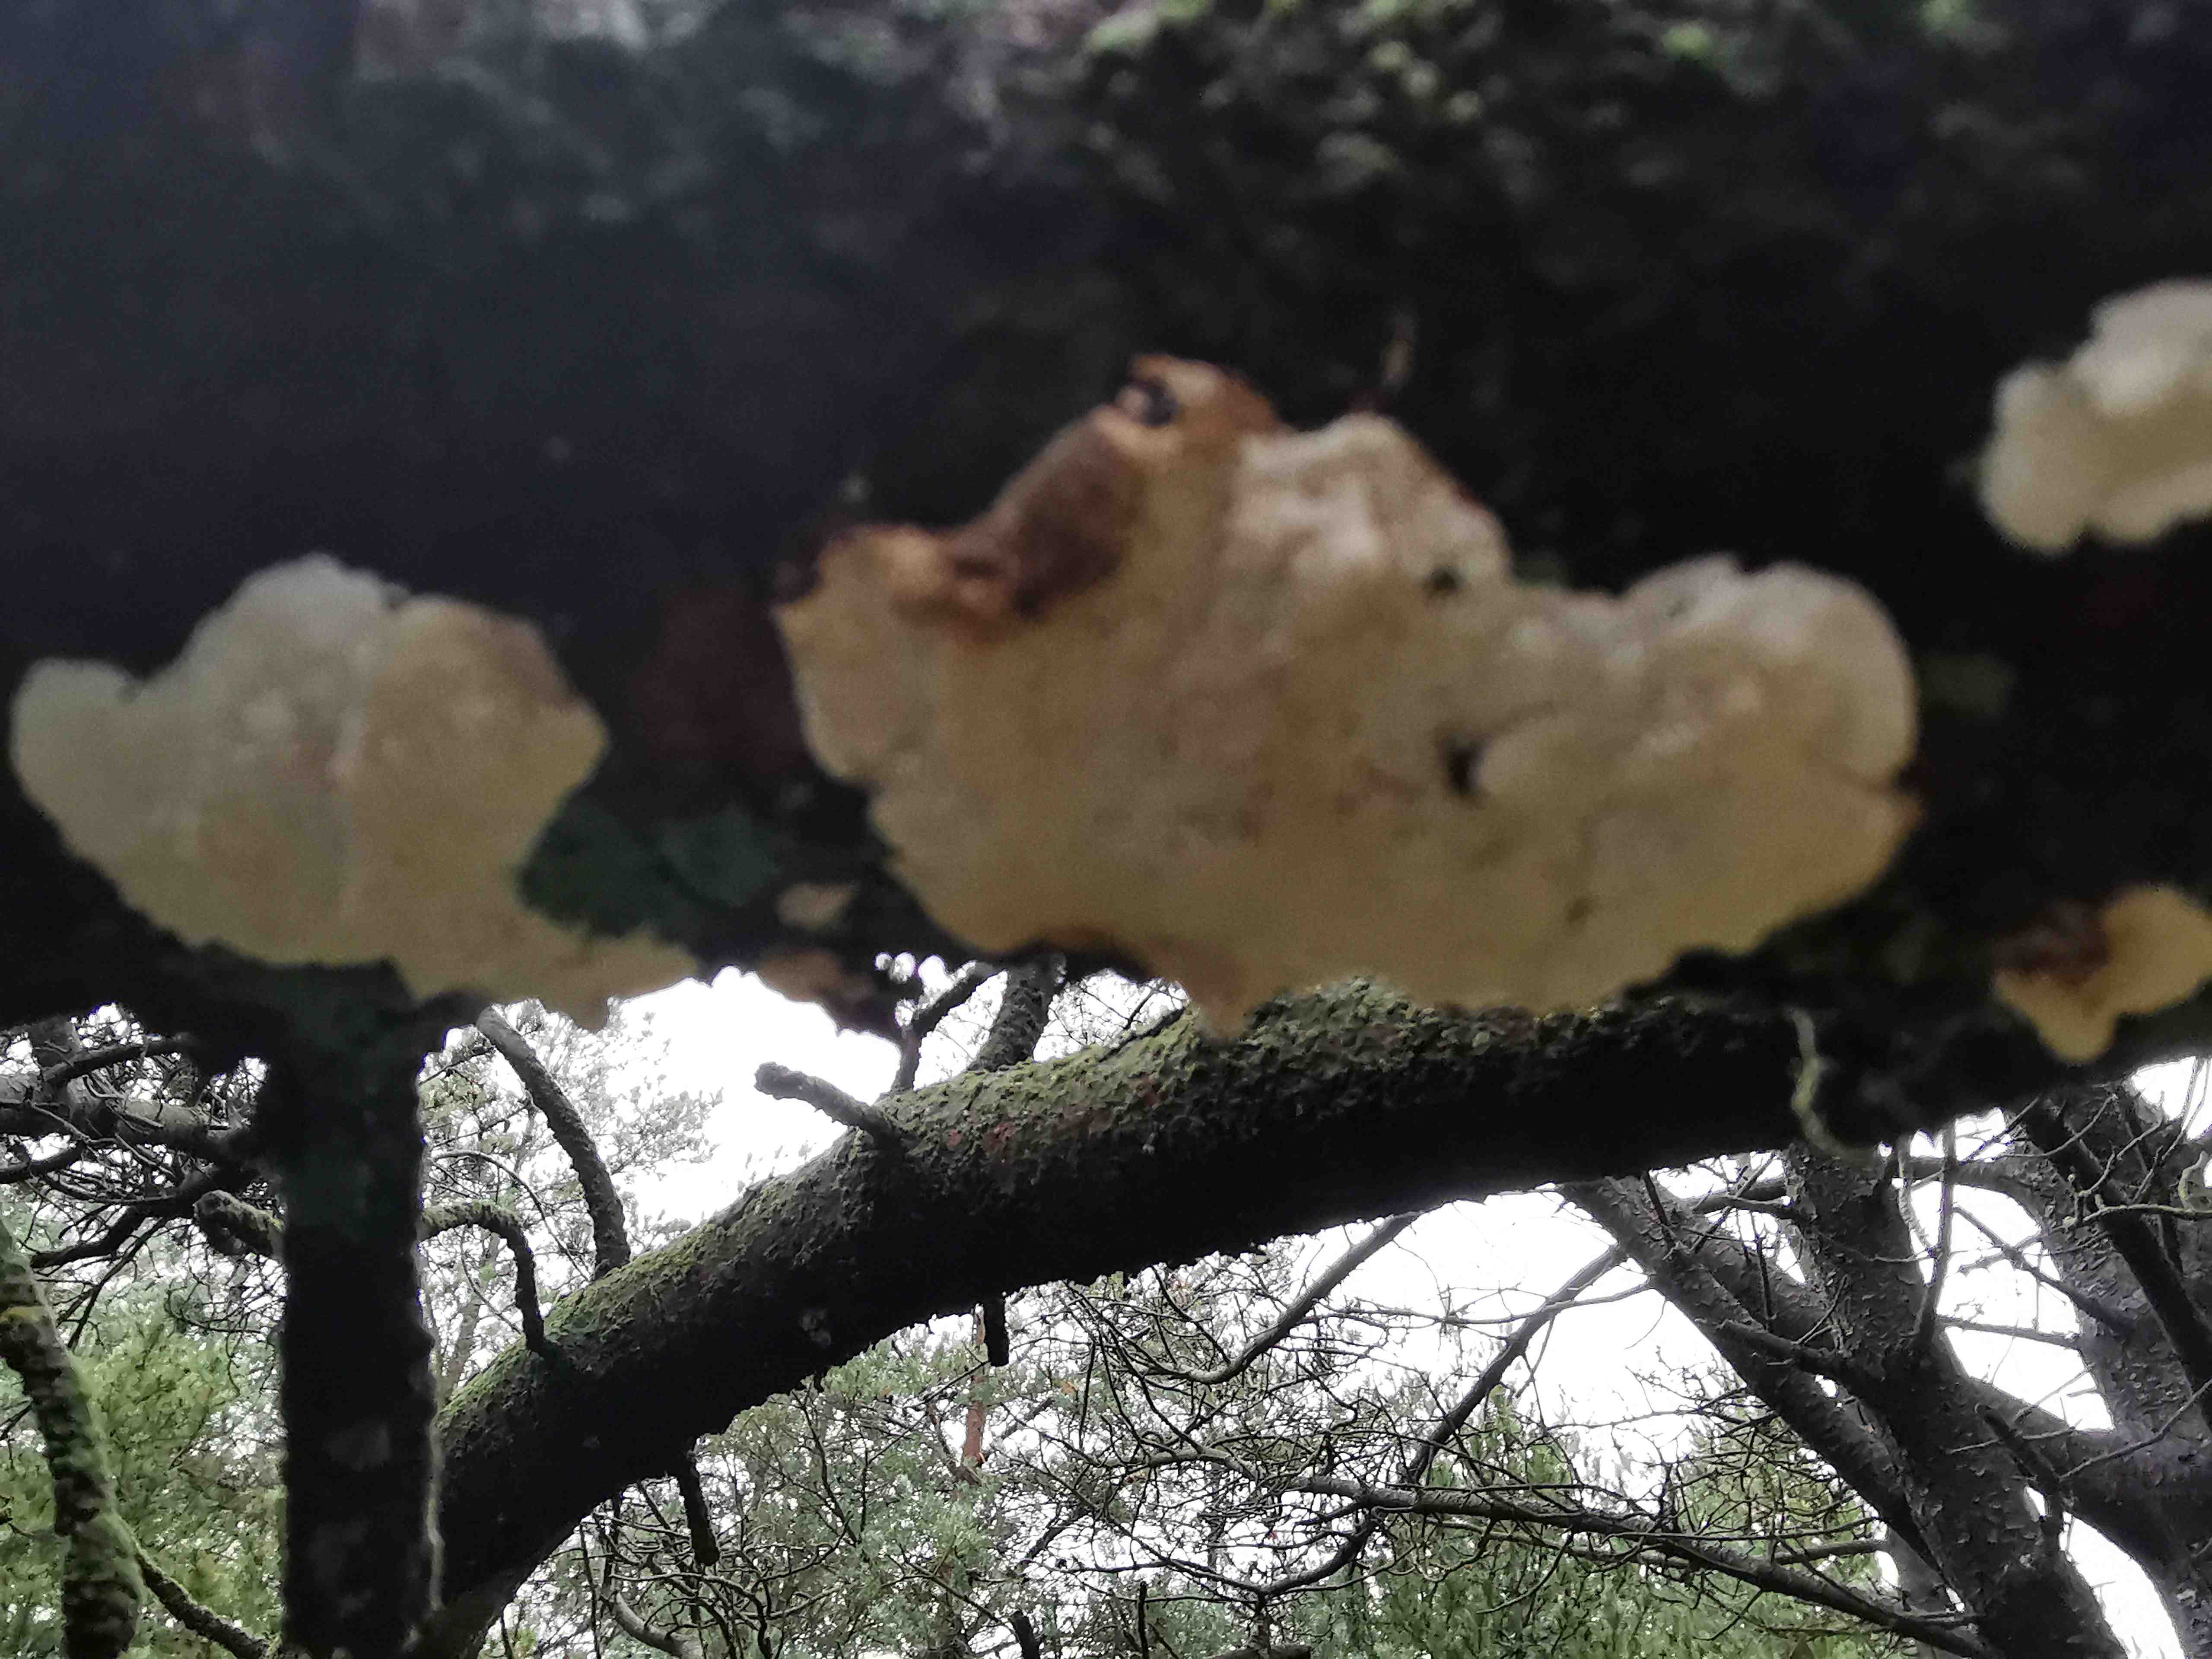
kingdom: Fungi
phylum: Basidiomycota
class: Agaricomycetes
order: Polyporales
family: Fomitopsidaceae
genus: Fomitopsis
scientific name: Fomitopsis
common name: fyrre-skiveporesvamp
